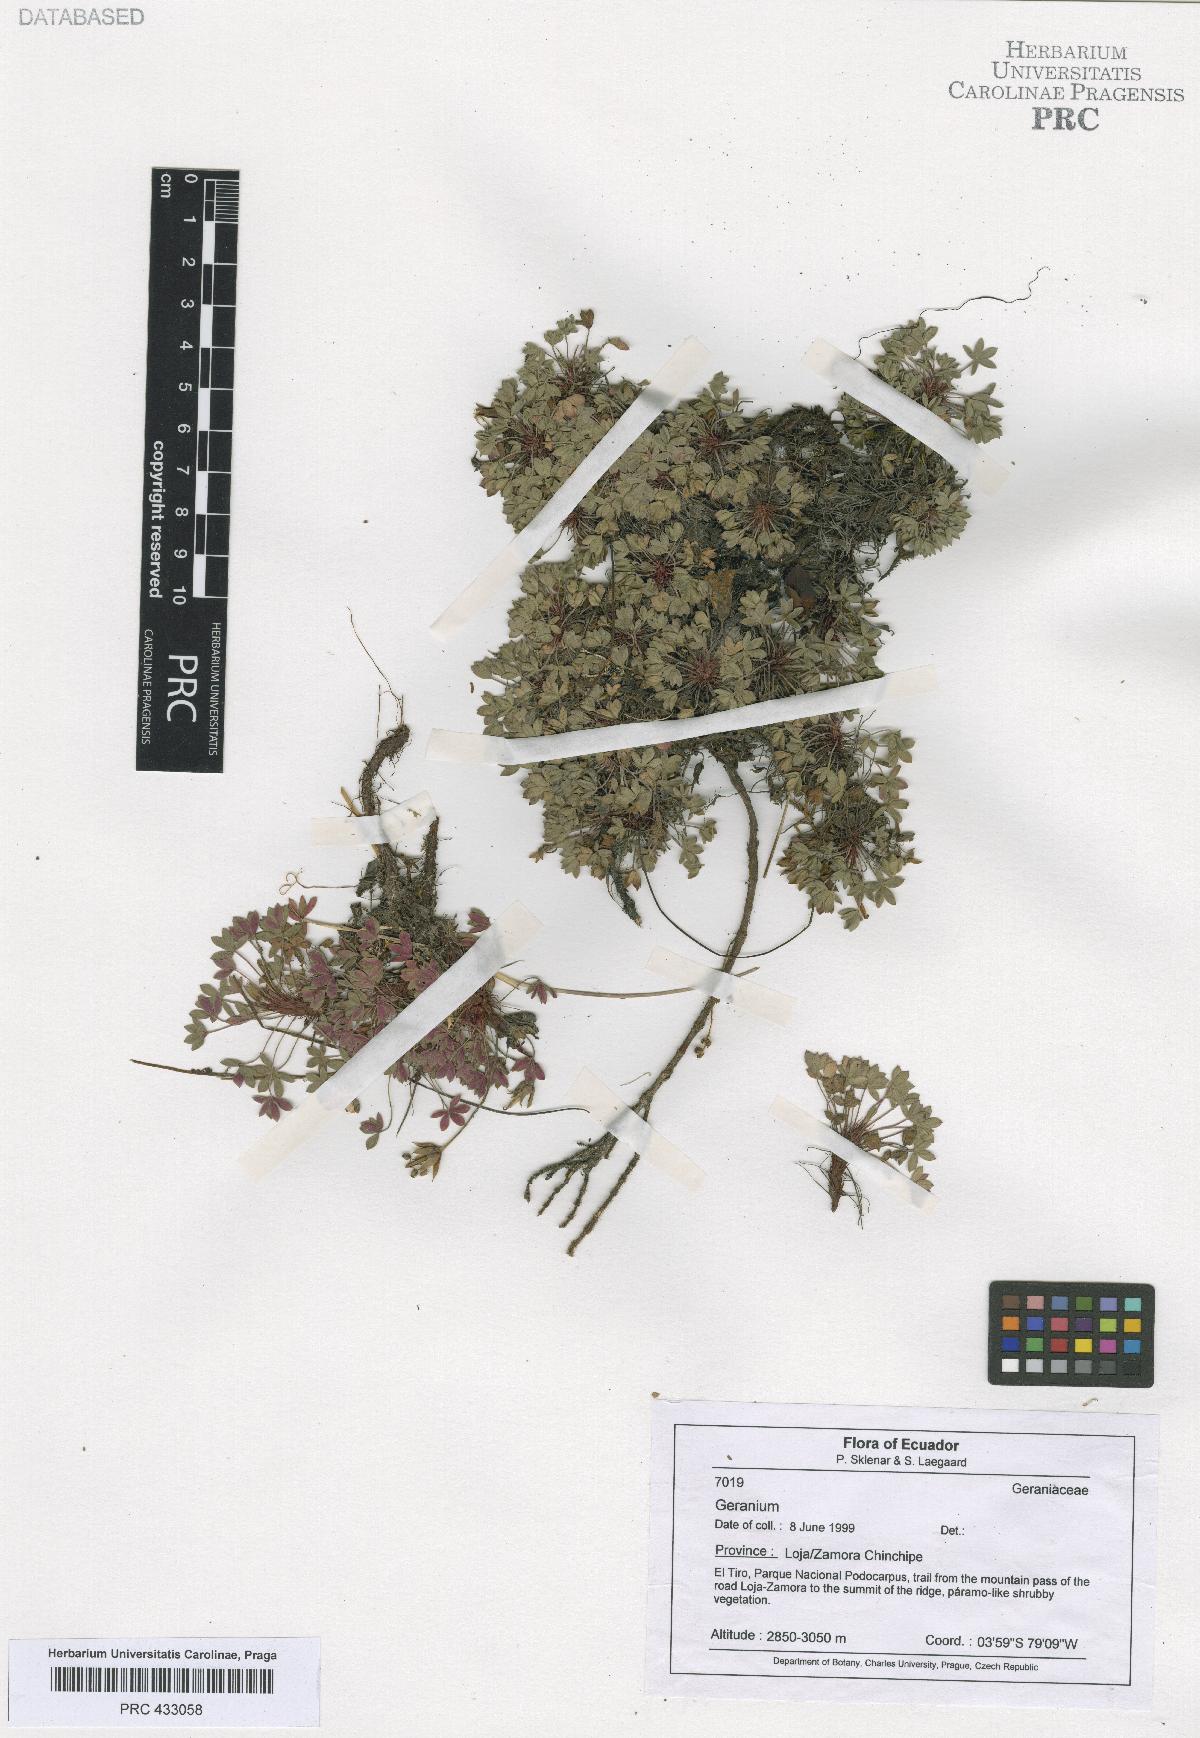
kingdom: Plantae
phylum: Tracheophyta
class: Magnoliopsida
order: Geraniales
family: Geraniaceae
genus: Geranium
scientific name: Geranium sibbaldioides
